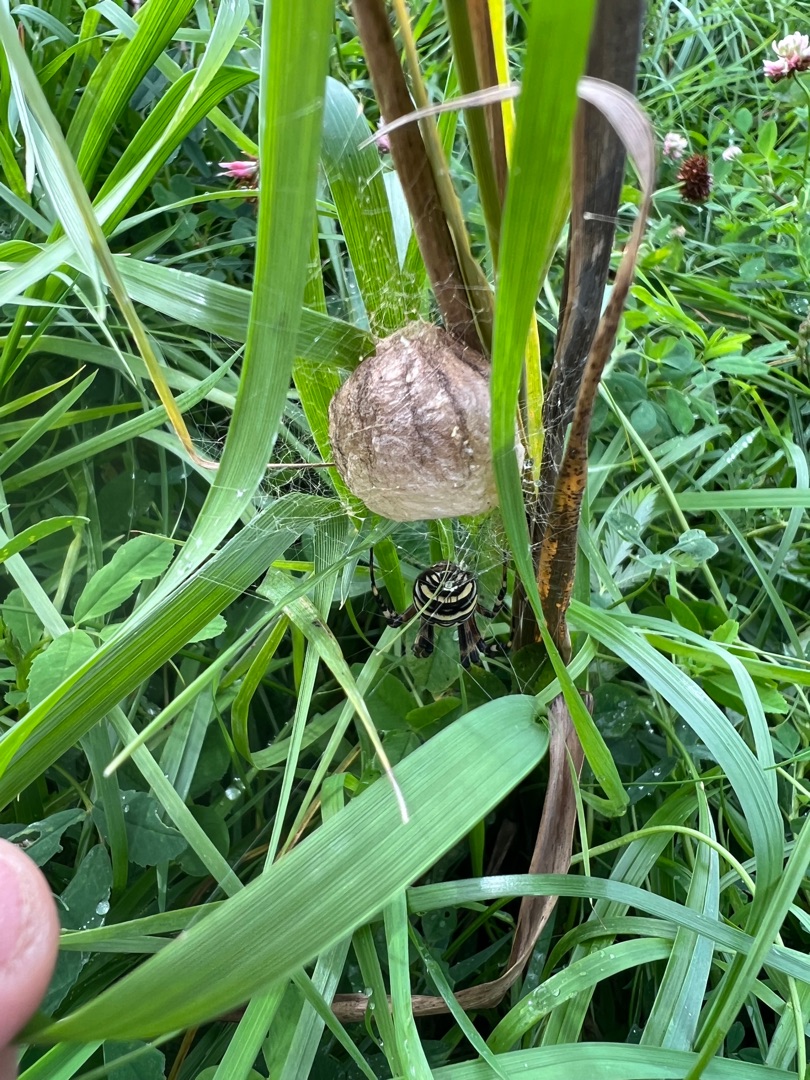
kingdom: Animalia
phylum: Arthropoda
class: Arachnida
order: Araneae
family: Araneidae
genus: Argiope
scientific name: Argiope bruennichi
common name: Hvepseedderkop
